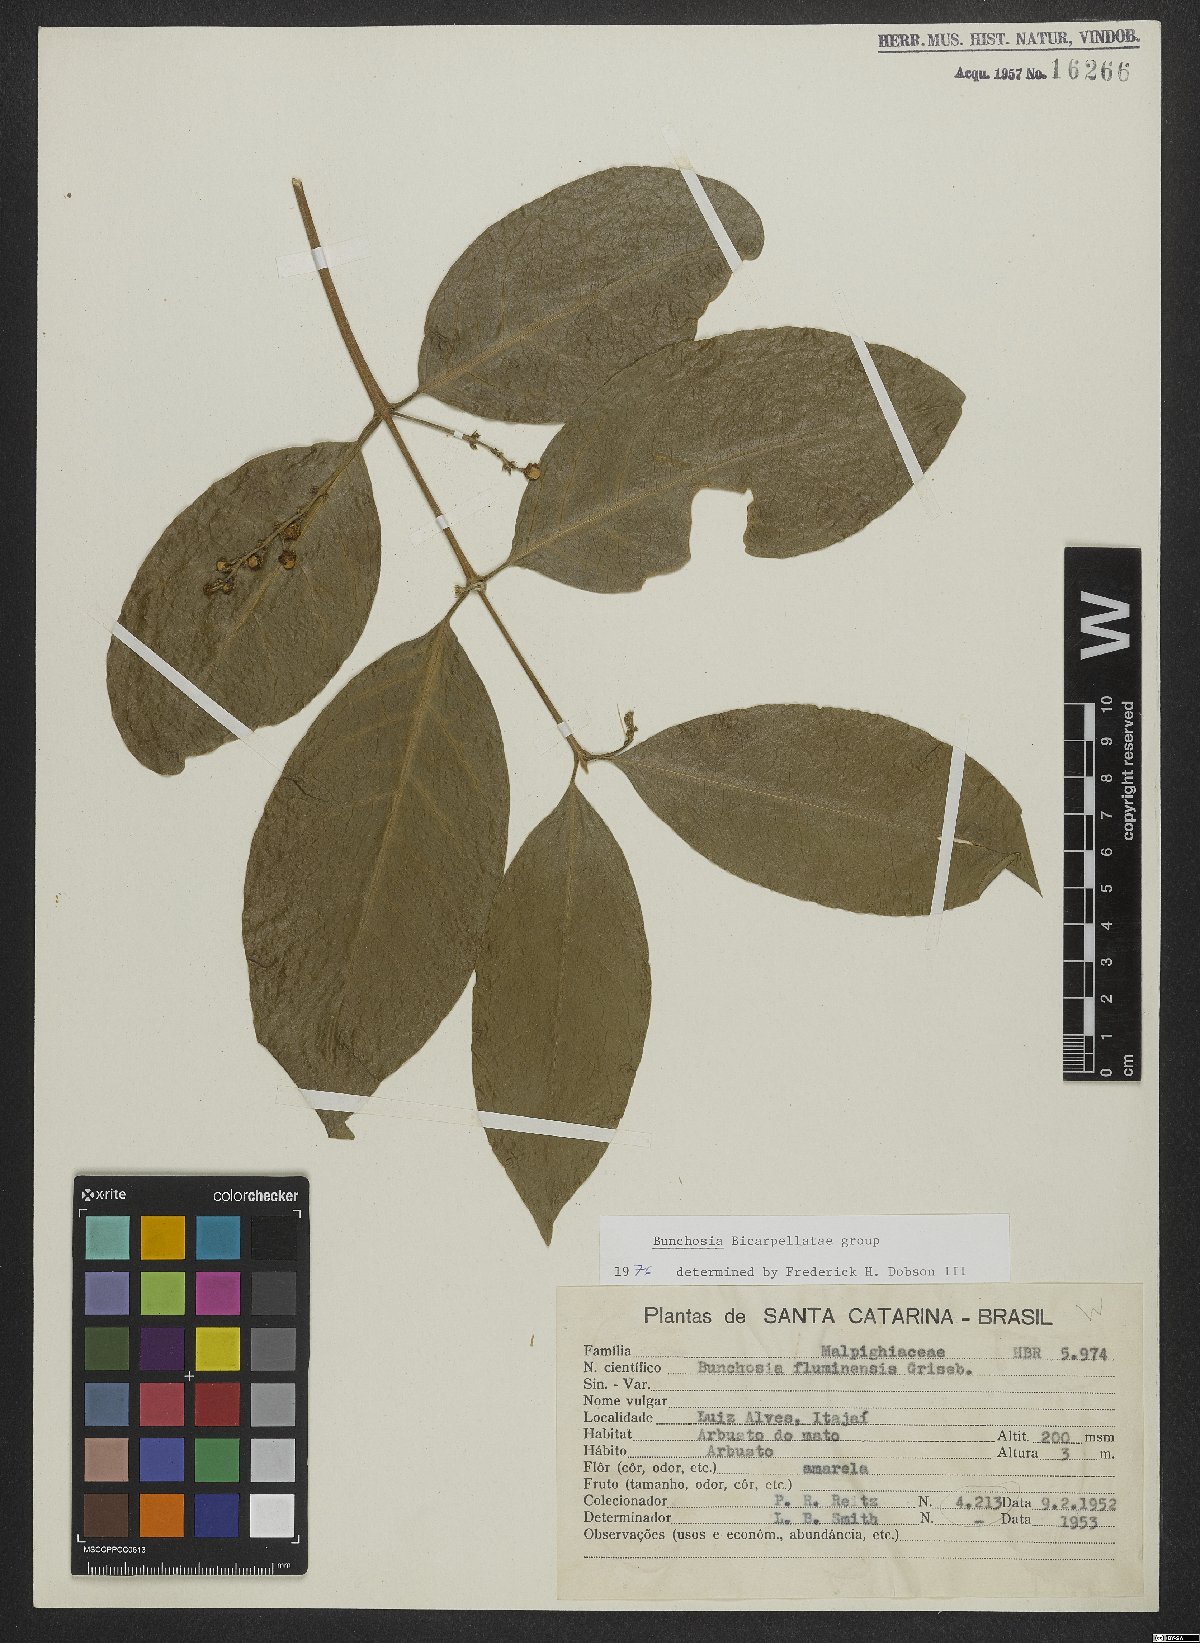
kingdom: Plantae
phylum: Tracheophyta
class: Magnoliopsida
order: Malpighiales
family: Malpighiaceae
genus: Bunchosia
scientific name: Bunchosia fluminensis
